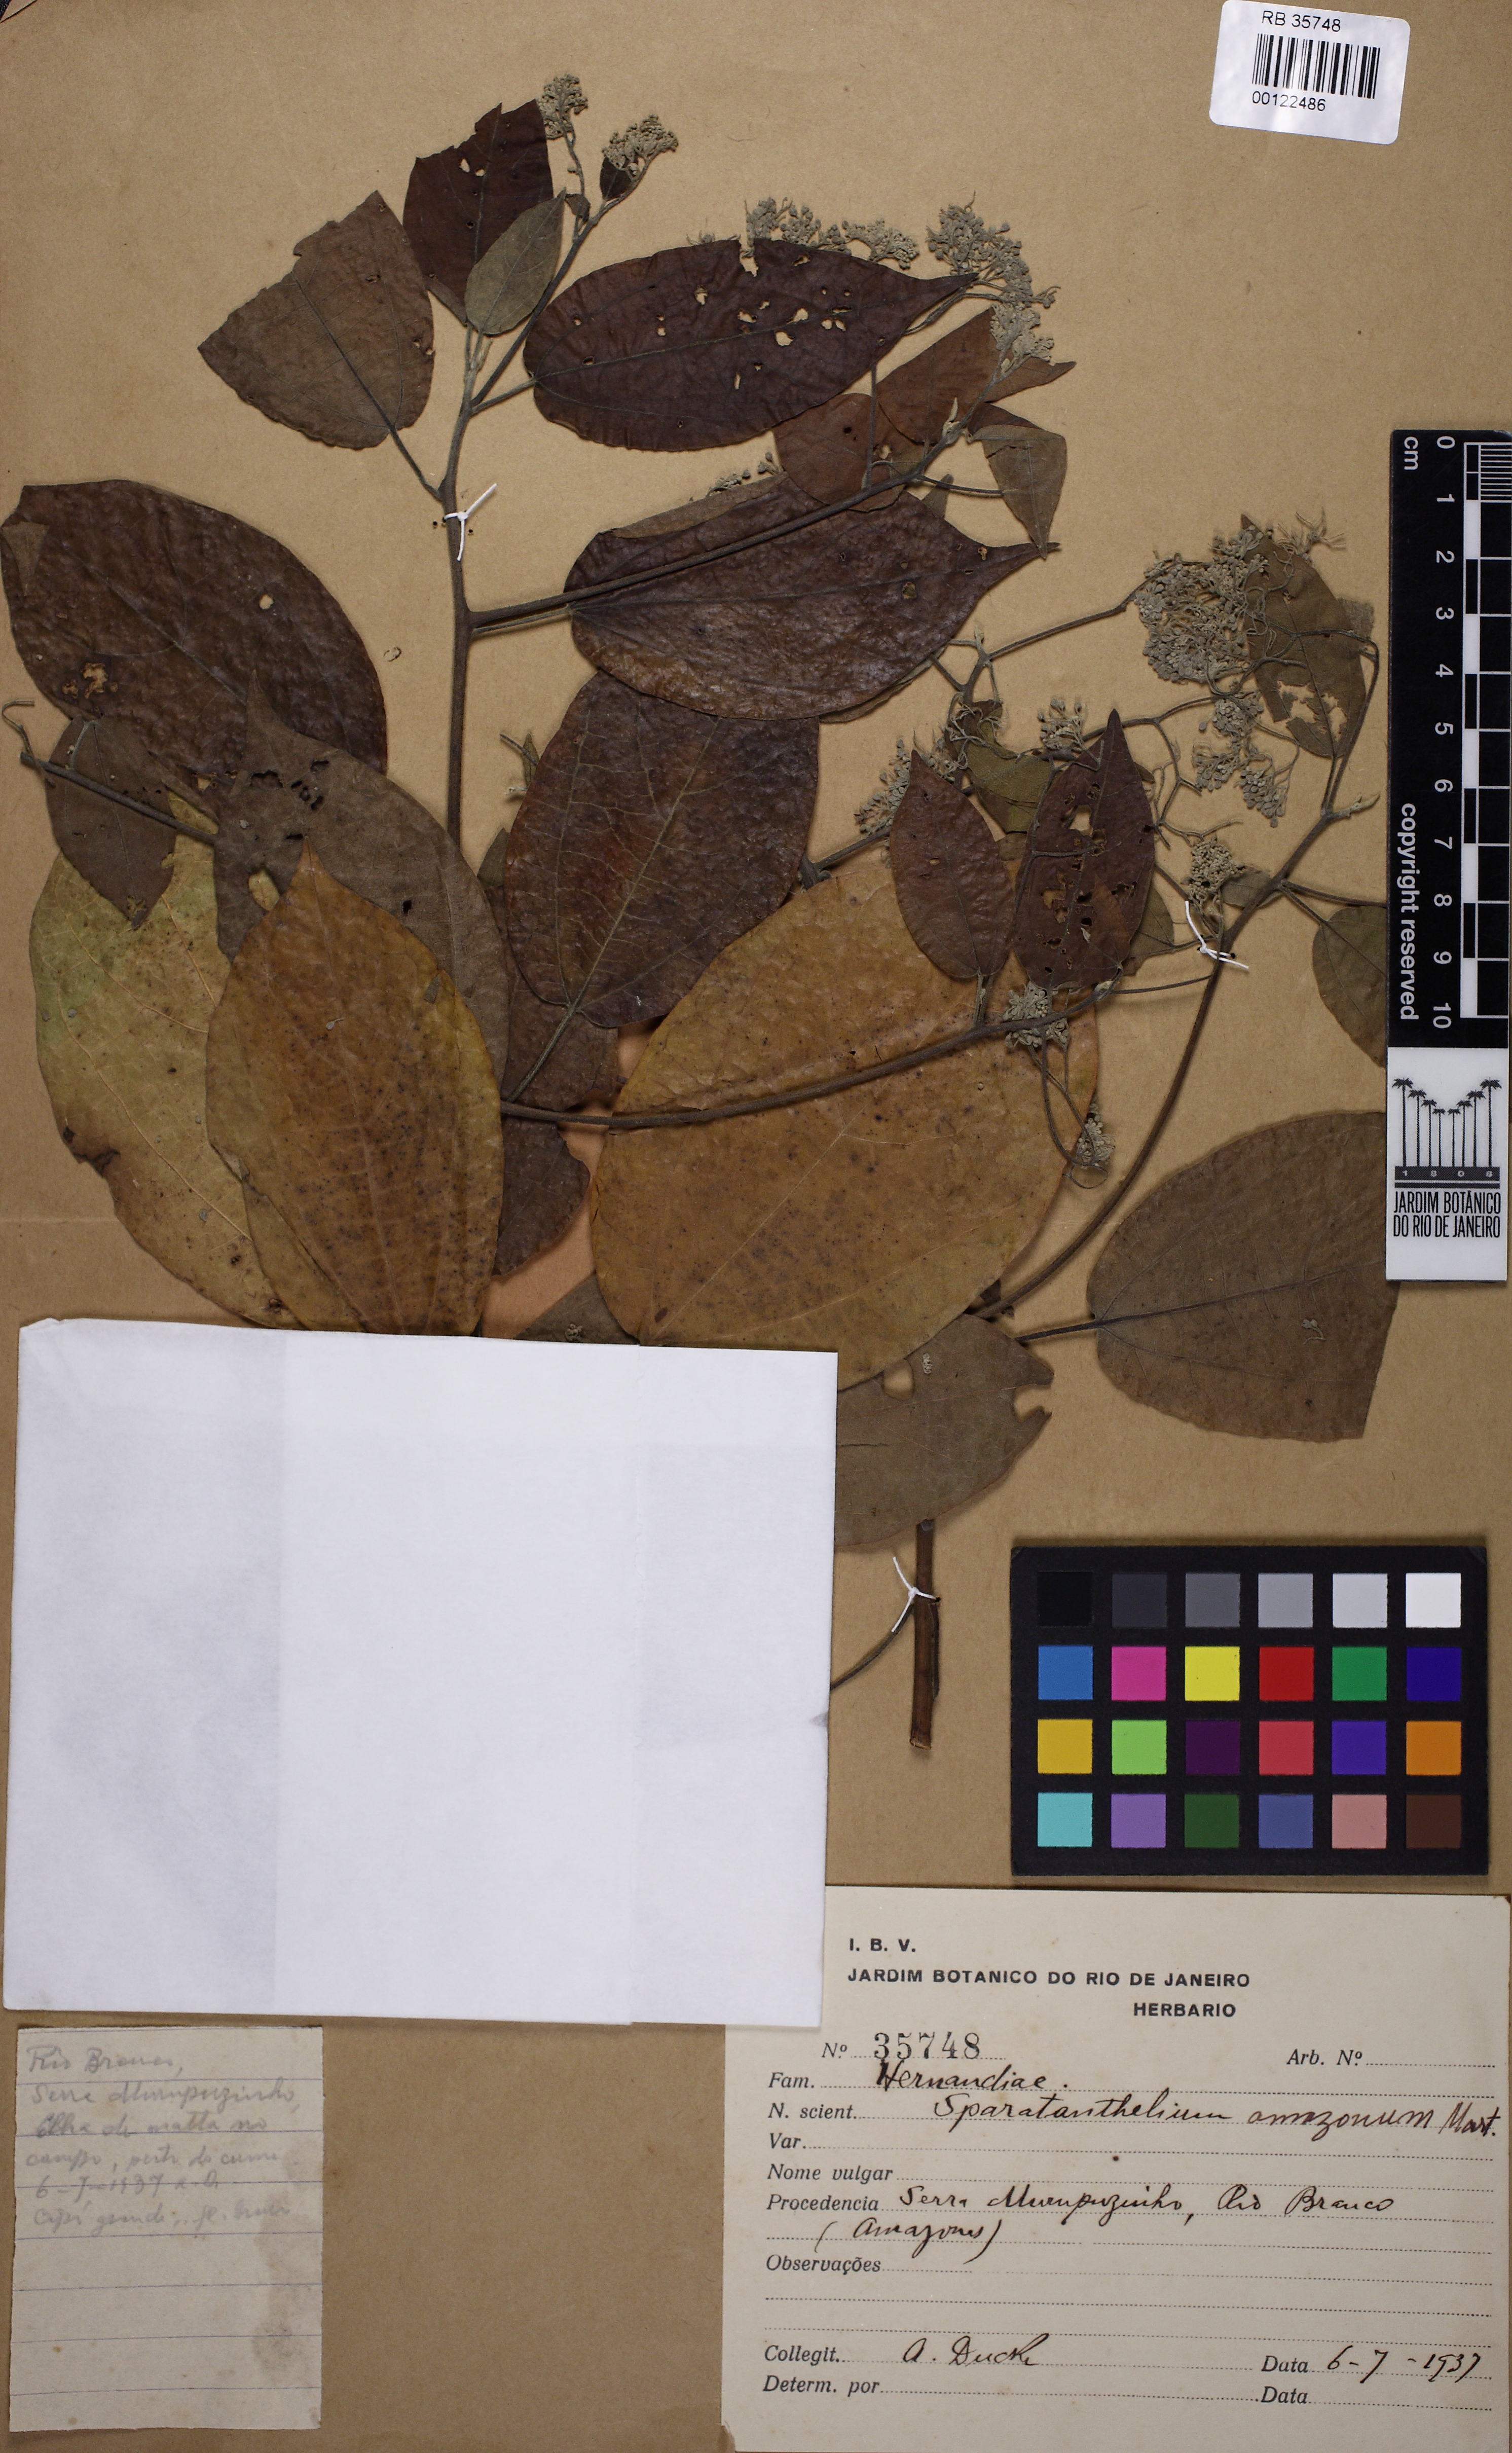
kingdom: Plantae
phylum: Tracheophyta
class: Magnoliopsida
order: Laurales
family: Hernandiaceae
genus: Sparattanthelium
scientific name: Sparattanthelium amazonum
